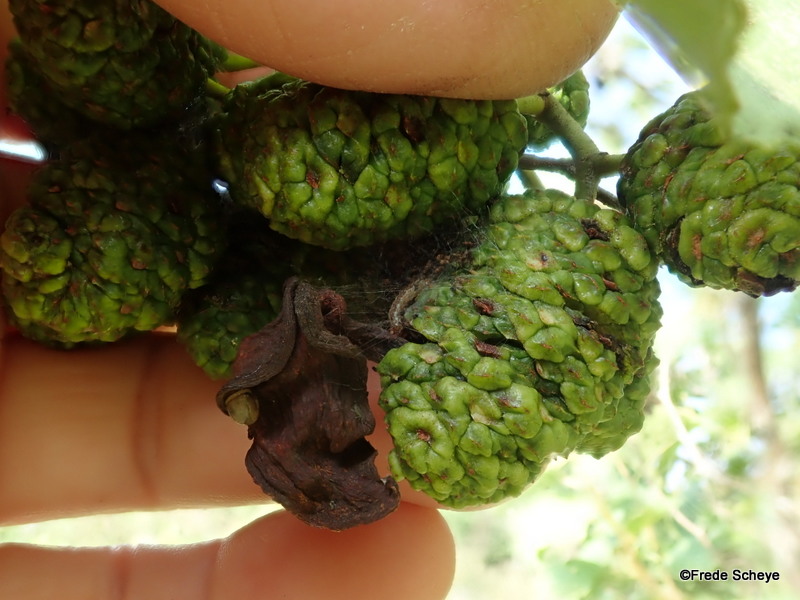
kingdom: Fungi
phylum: Ascomycota
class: Taphrinomycetes
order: Taphrinales
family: Taphrinaceae
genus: Taphrina
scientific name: Taphrina alni
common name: Alder tongue
